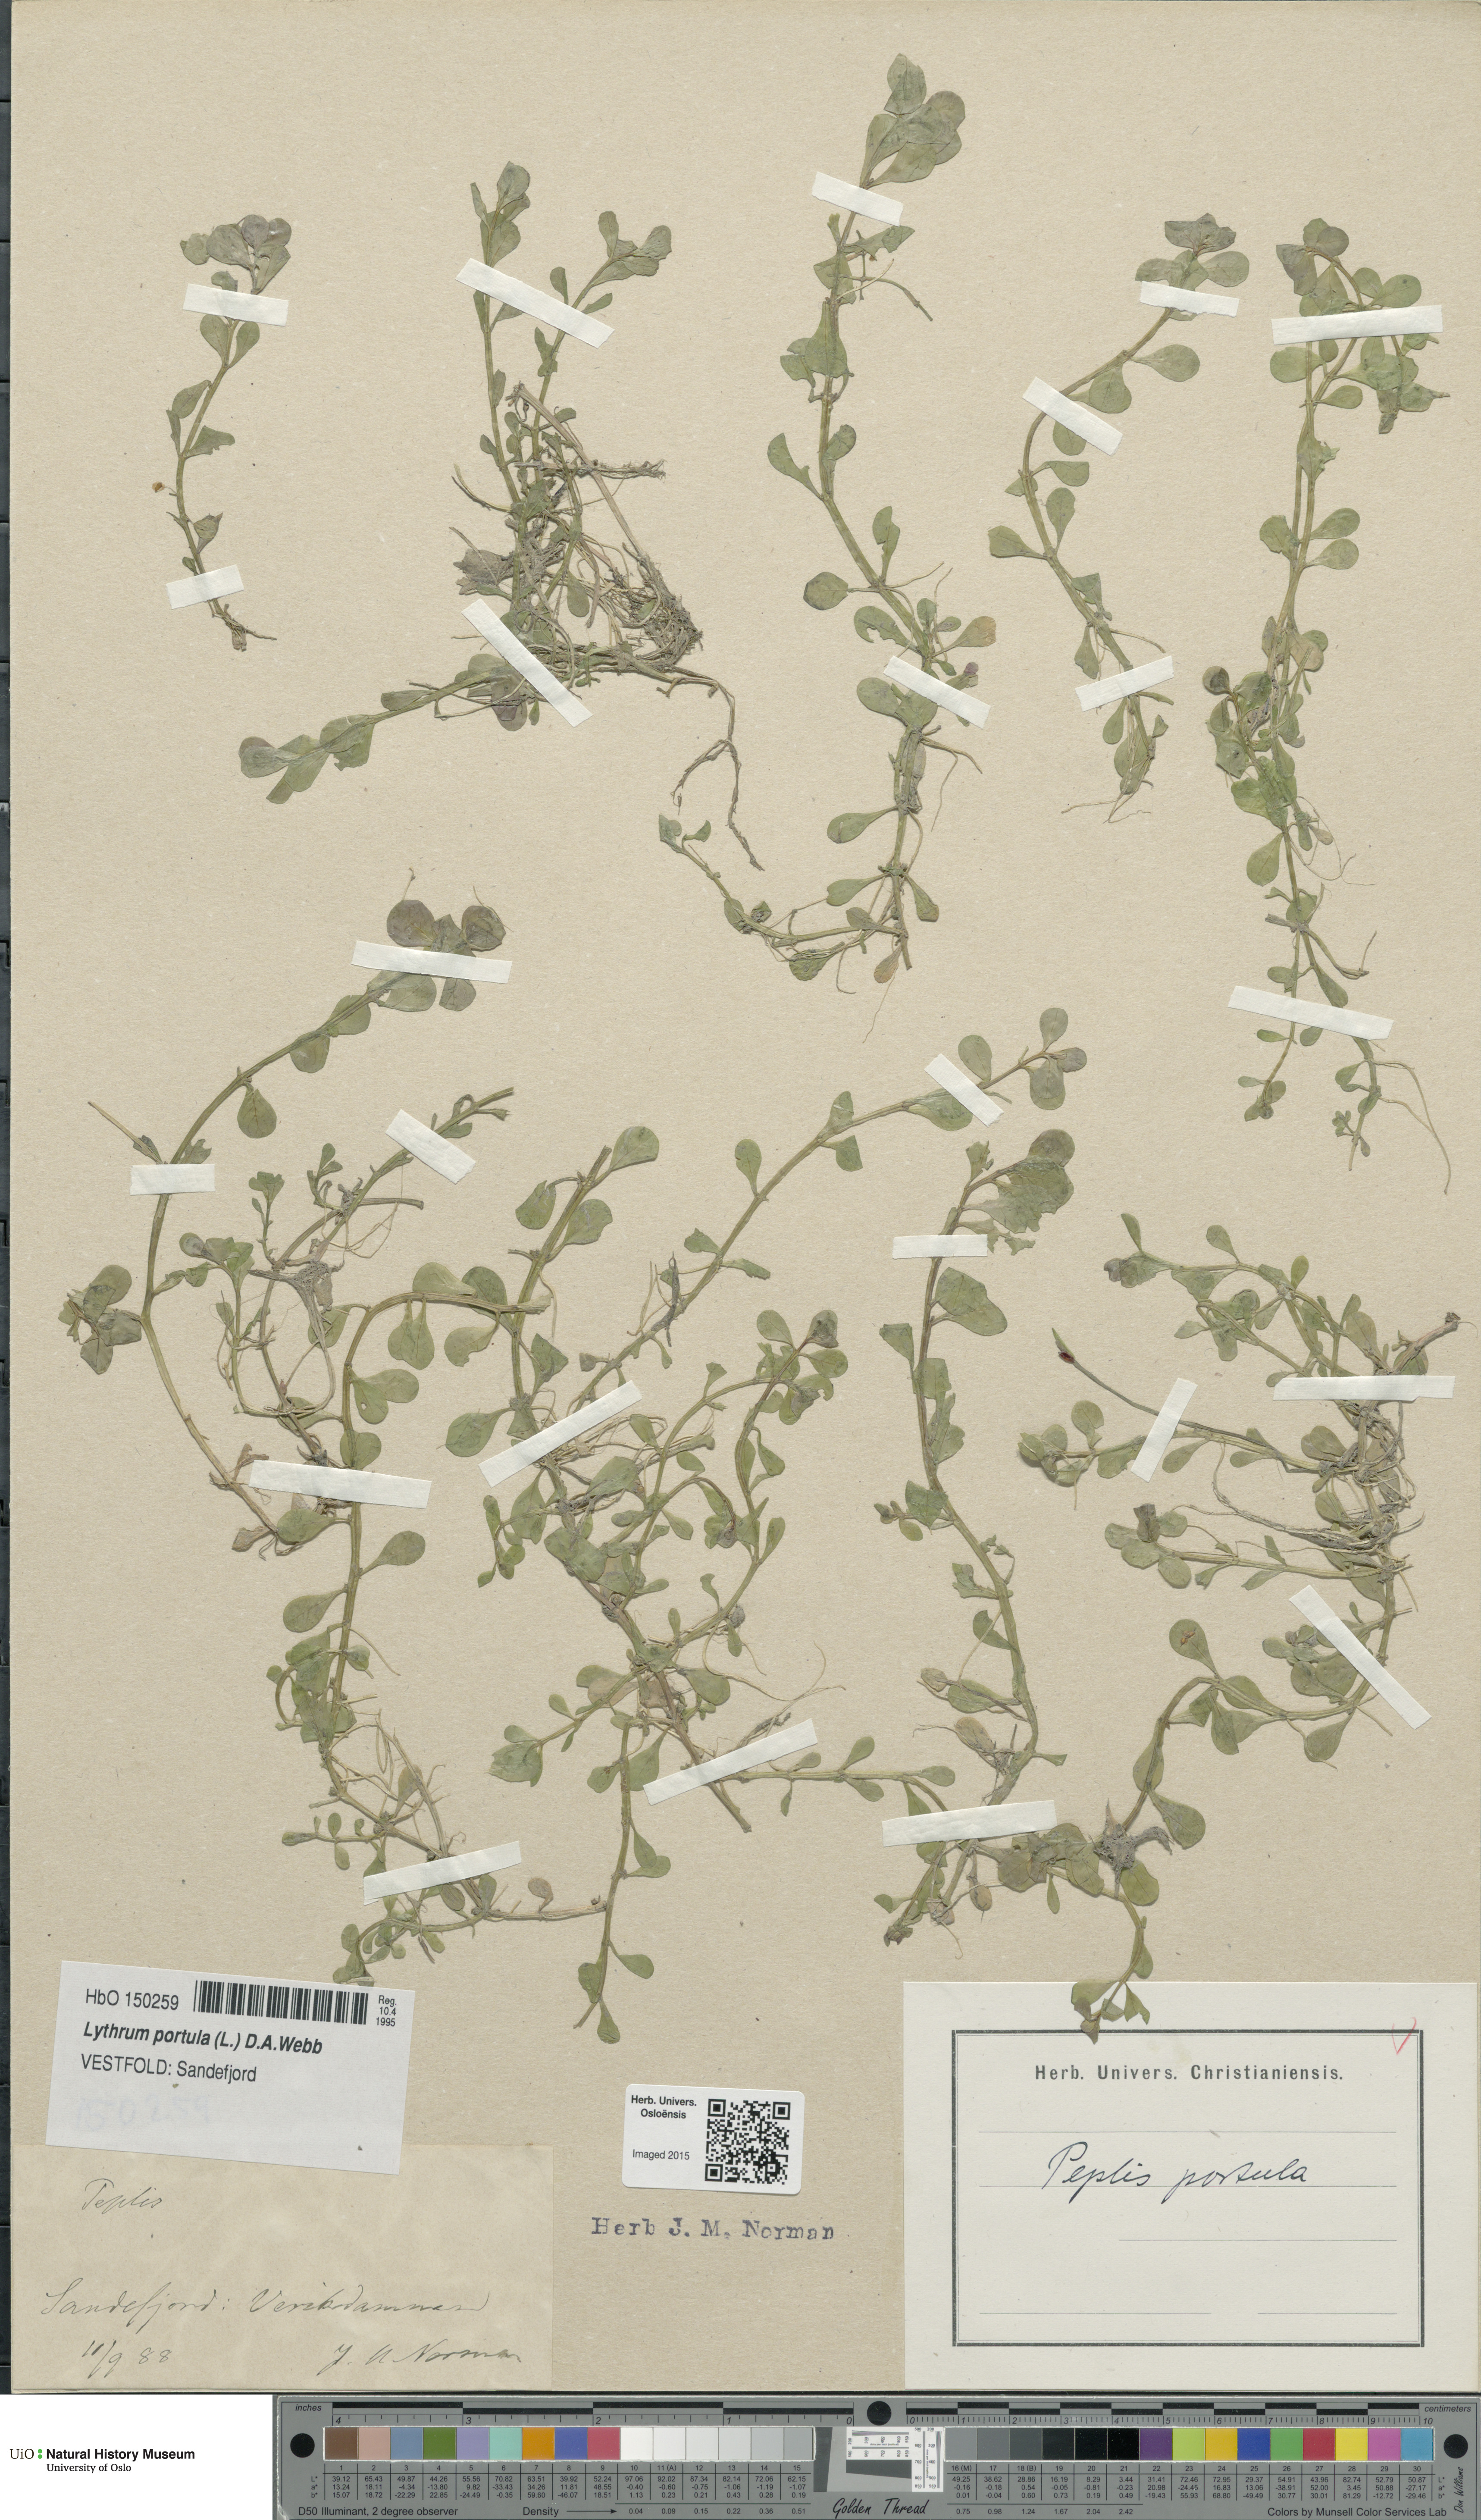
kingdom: Plantae
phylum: Tracheophyta
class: Magnoliopsida
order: Myrtales
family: Lythraceae
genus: Lythrum
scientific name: Lythrum portula
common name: Water purslane
